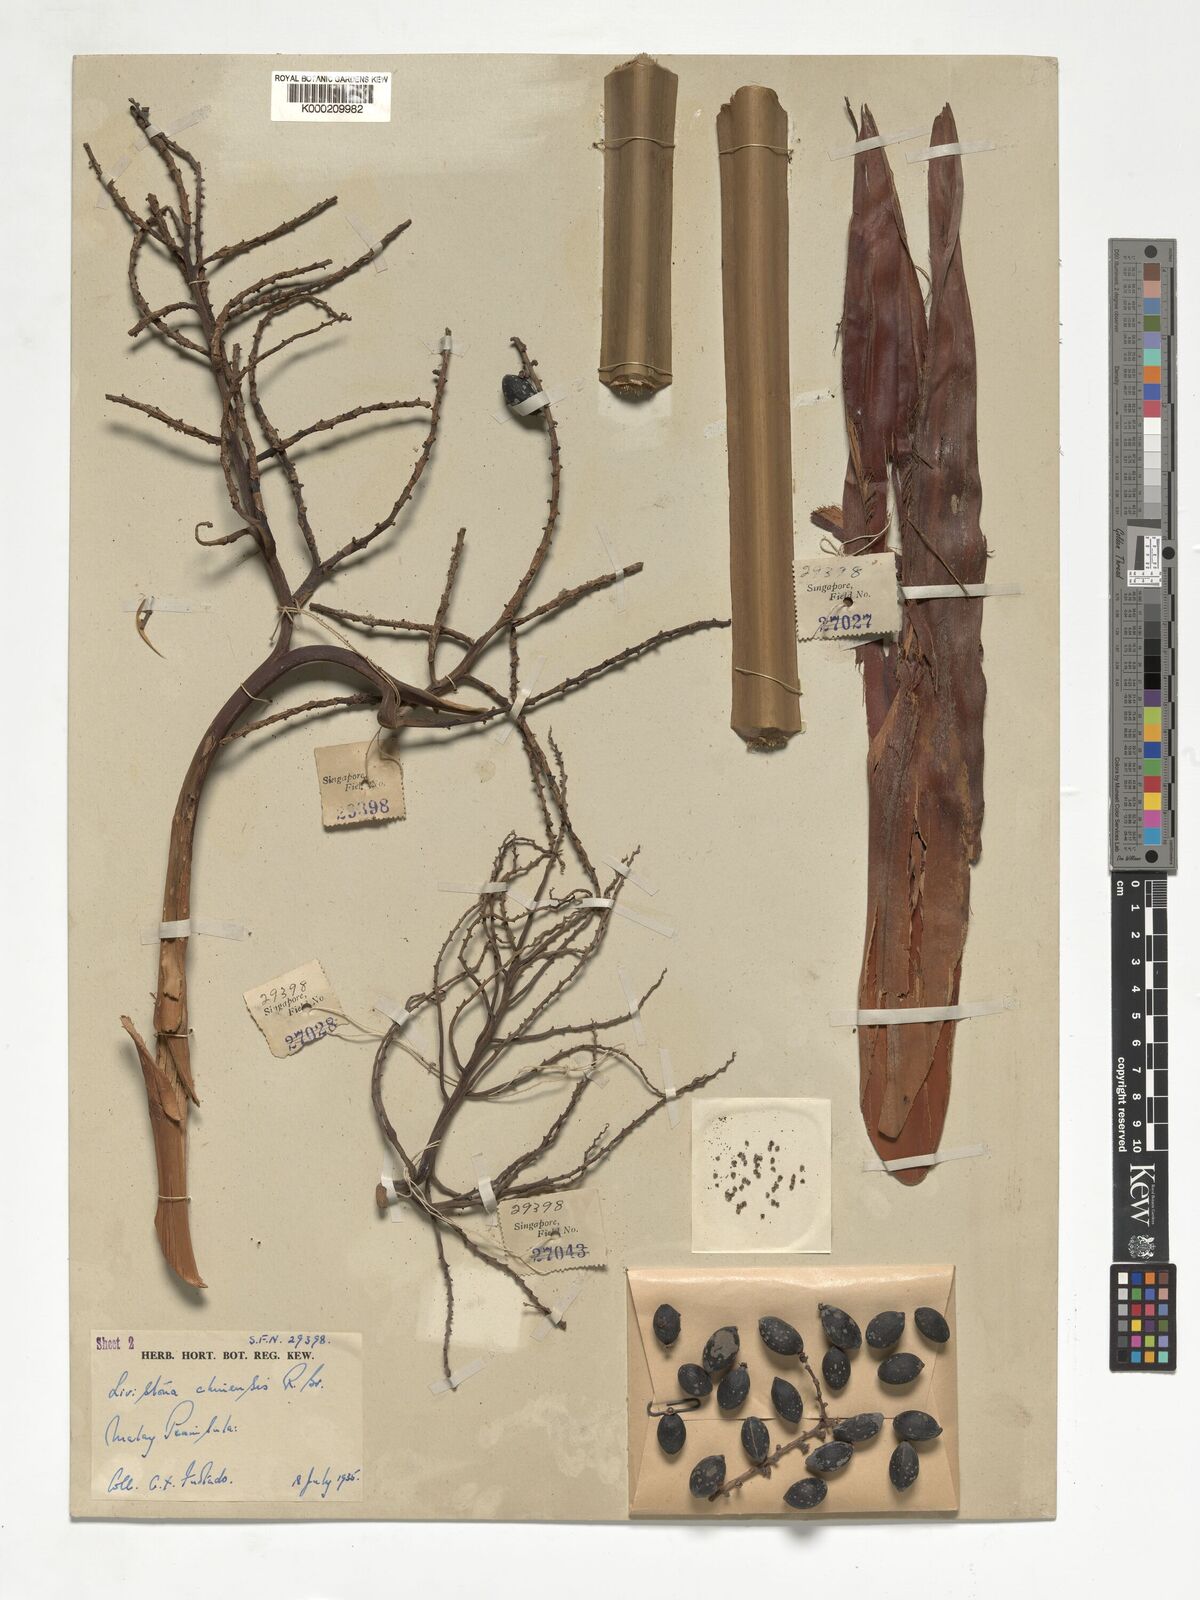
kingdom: Plantae
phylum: Tracheophyta
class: Liliopsida
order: Arecales
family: Arecaceae
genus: Livistona
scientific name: Livistona chinensis
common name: Fountain palm
